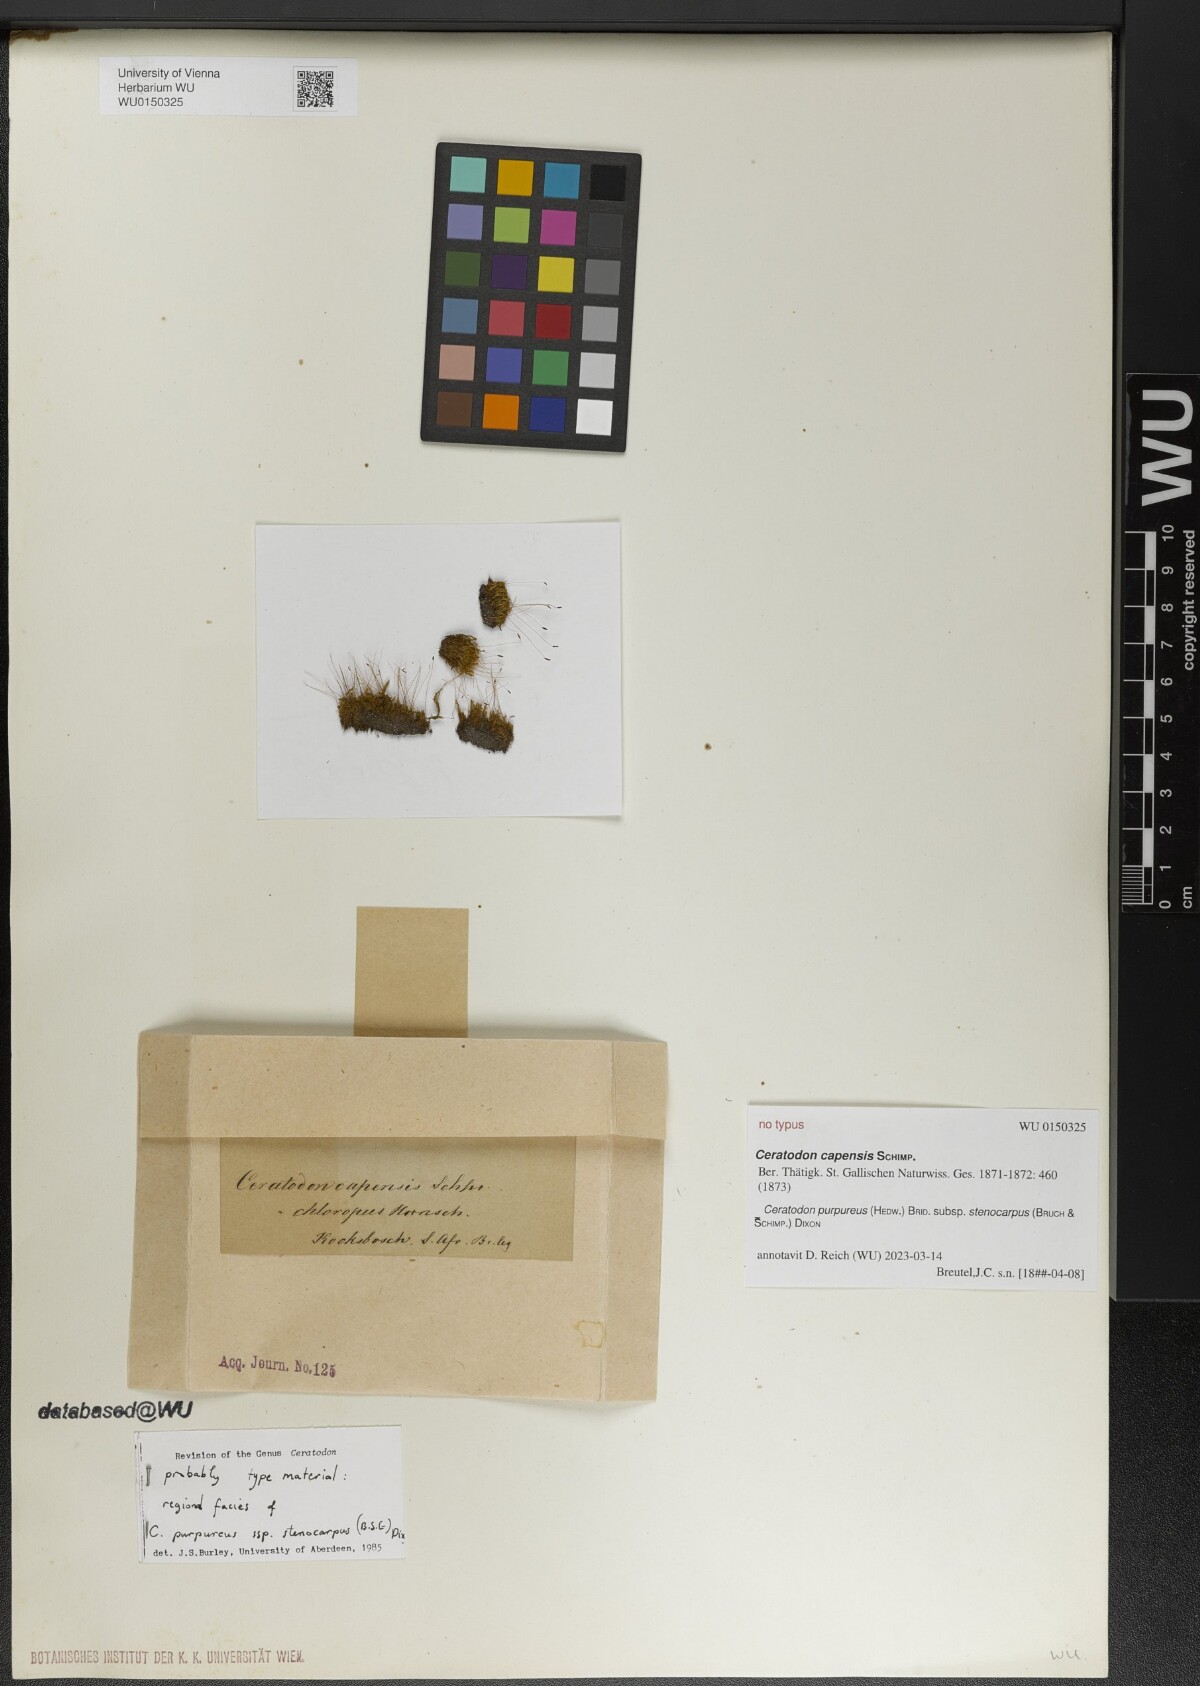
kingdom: Plantae
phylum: Bryophyta
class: Bryopsida
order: Dicranales
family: Ditrichaceae
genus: Ceratodon
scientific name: Ceratodon
